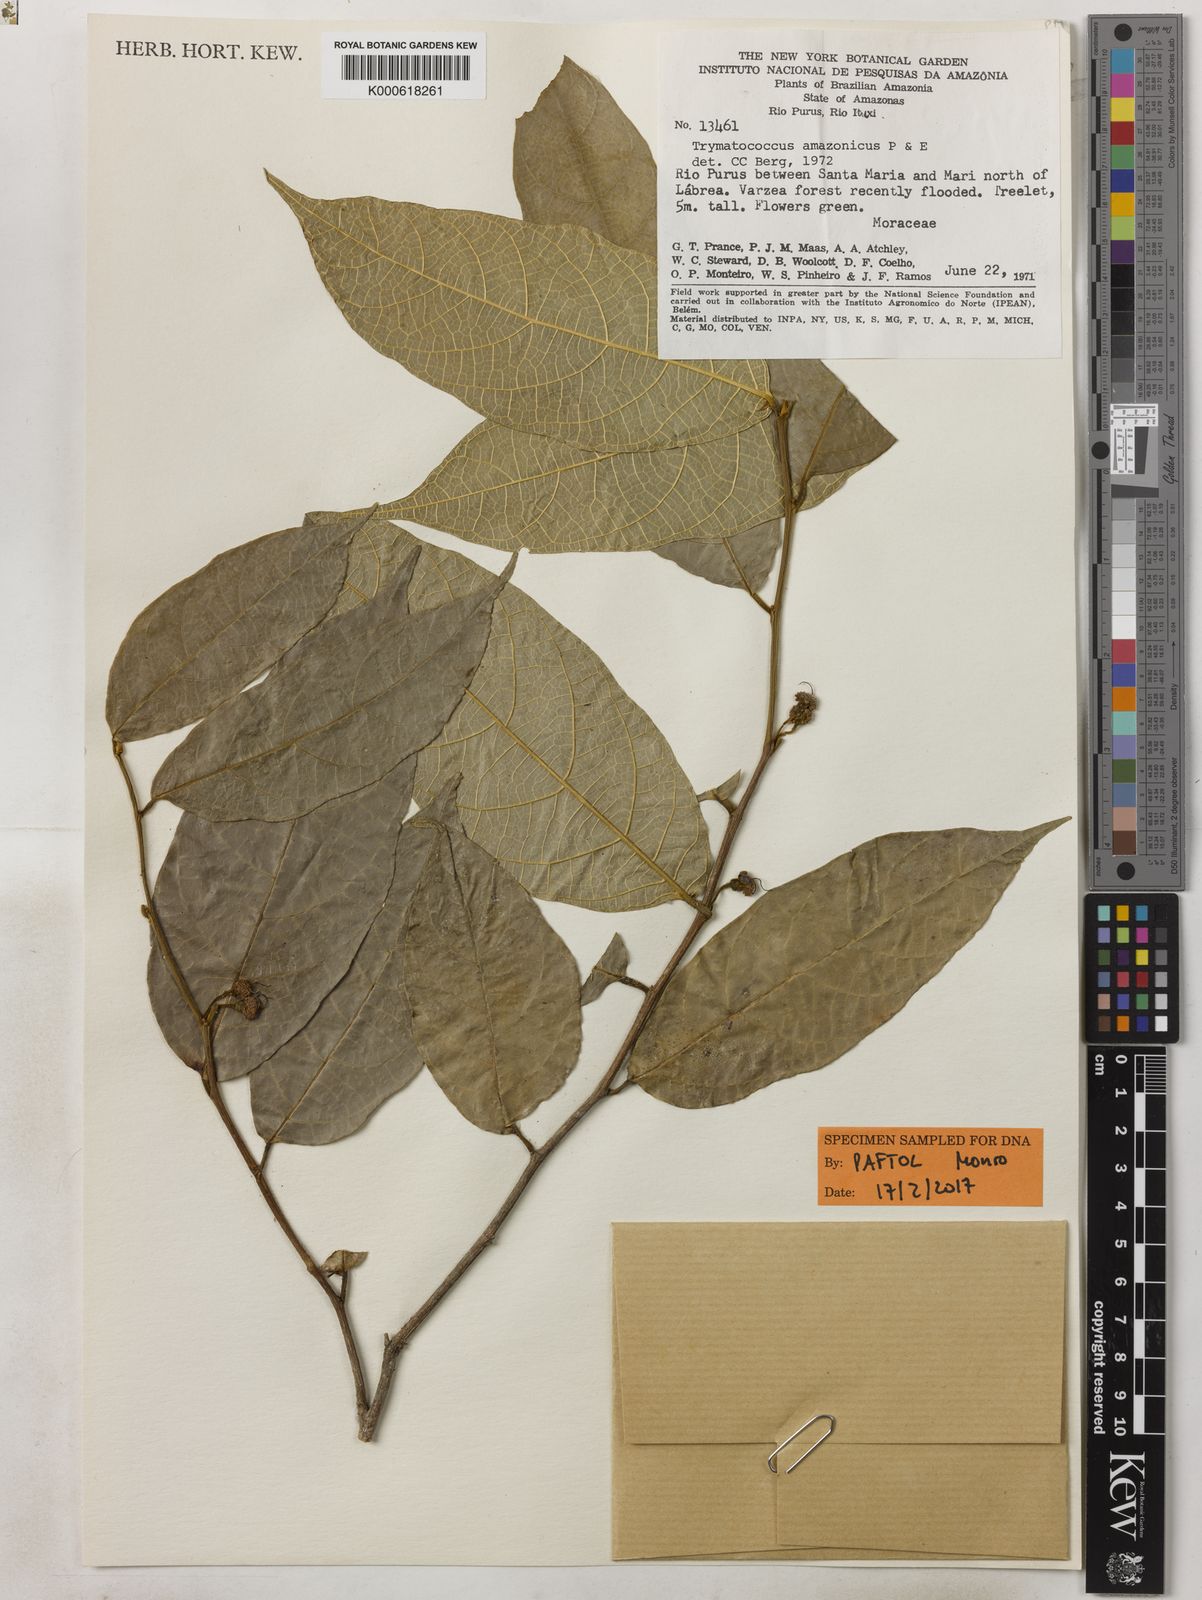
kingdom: Plantae
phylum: Tracheophyta
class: Magnoliopsida
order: Rosales
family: Moraceae
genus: Brosimum
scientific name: Brosimum amazonicum
